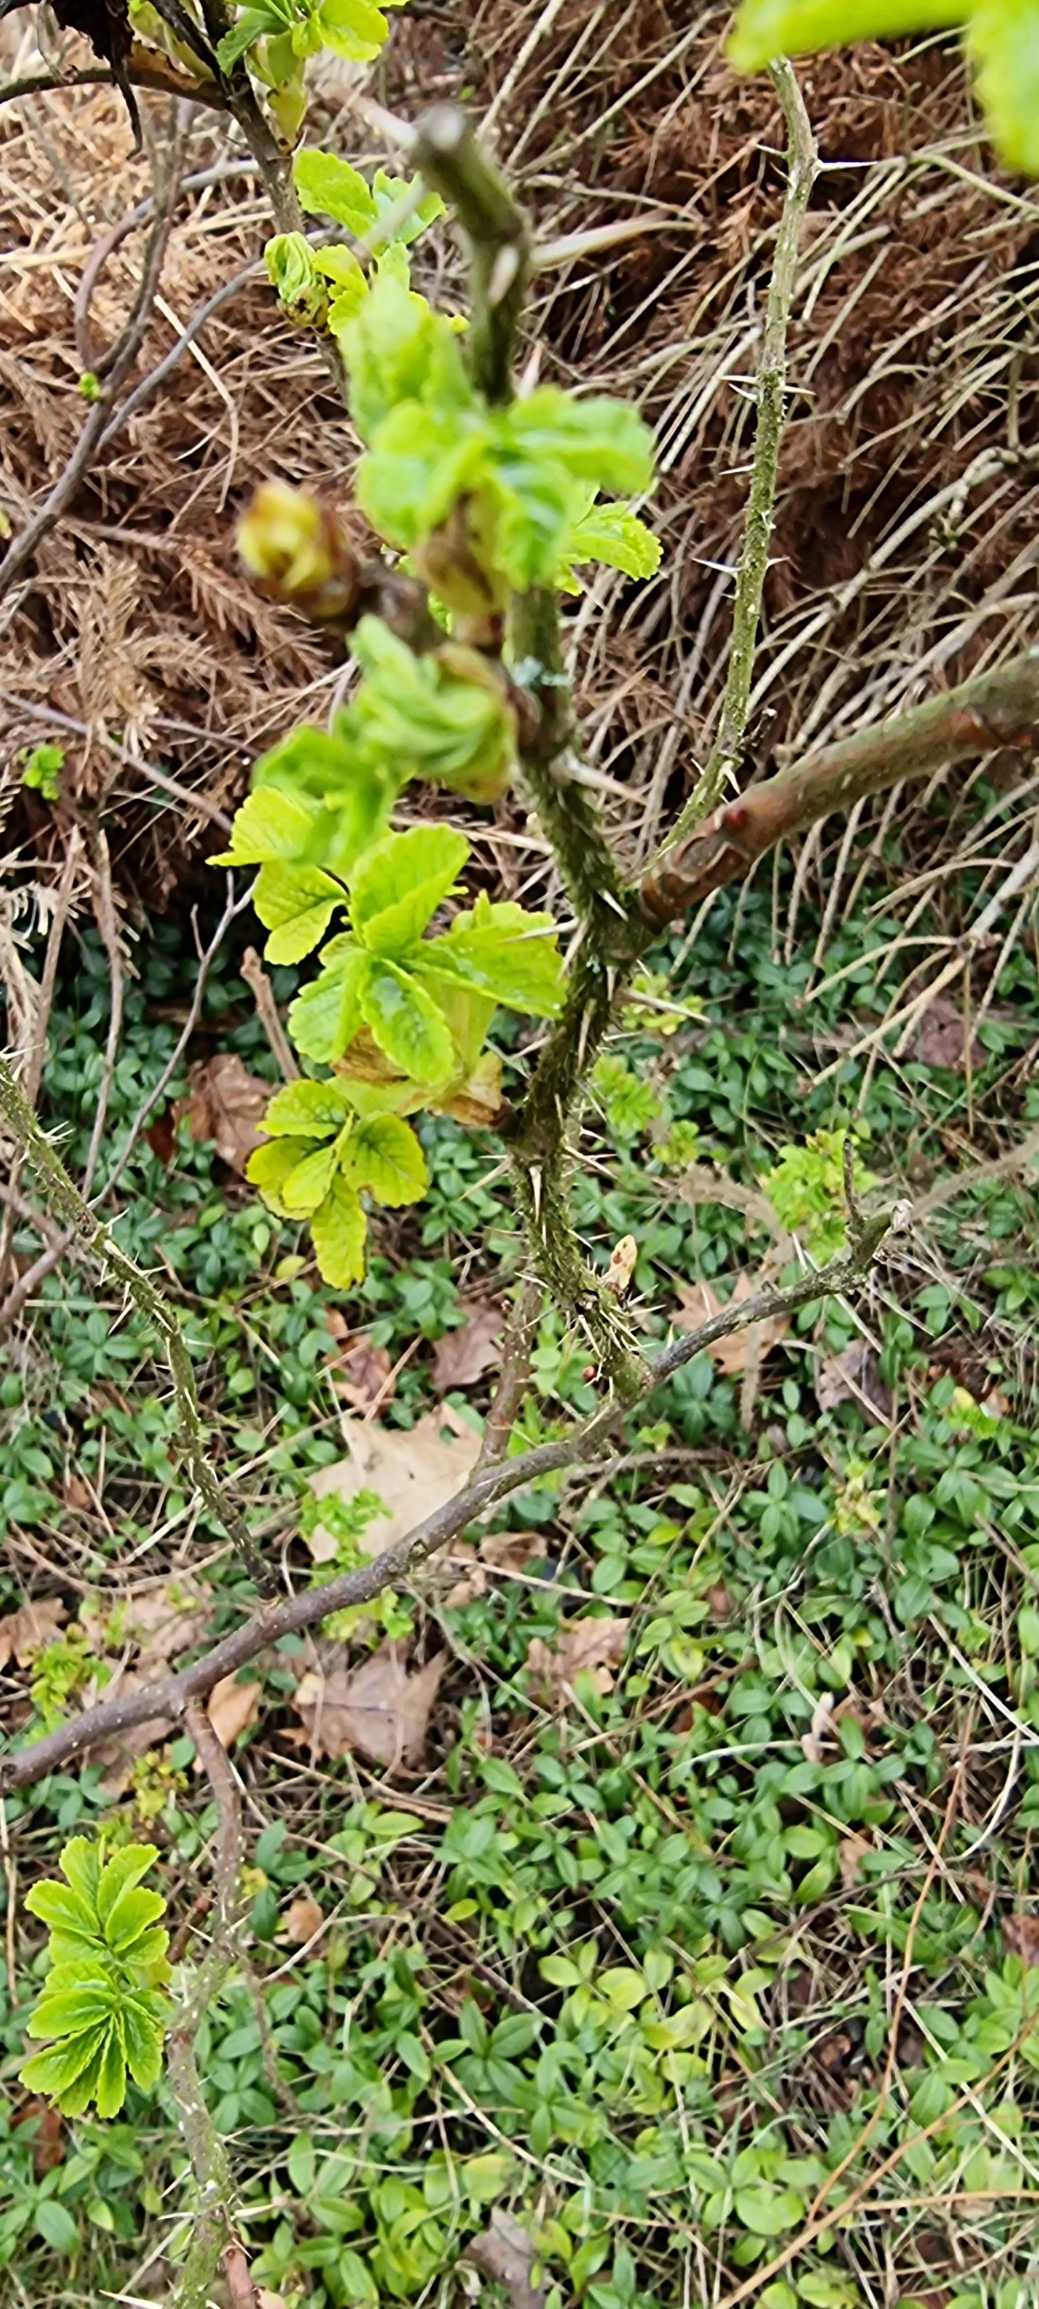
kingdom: Plantae
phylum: Tracheophyta
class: Magnoliopsida
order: Rosales
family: Rosaceae
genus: Rosa
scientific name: Rosa rugosa
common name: Rynket rose
